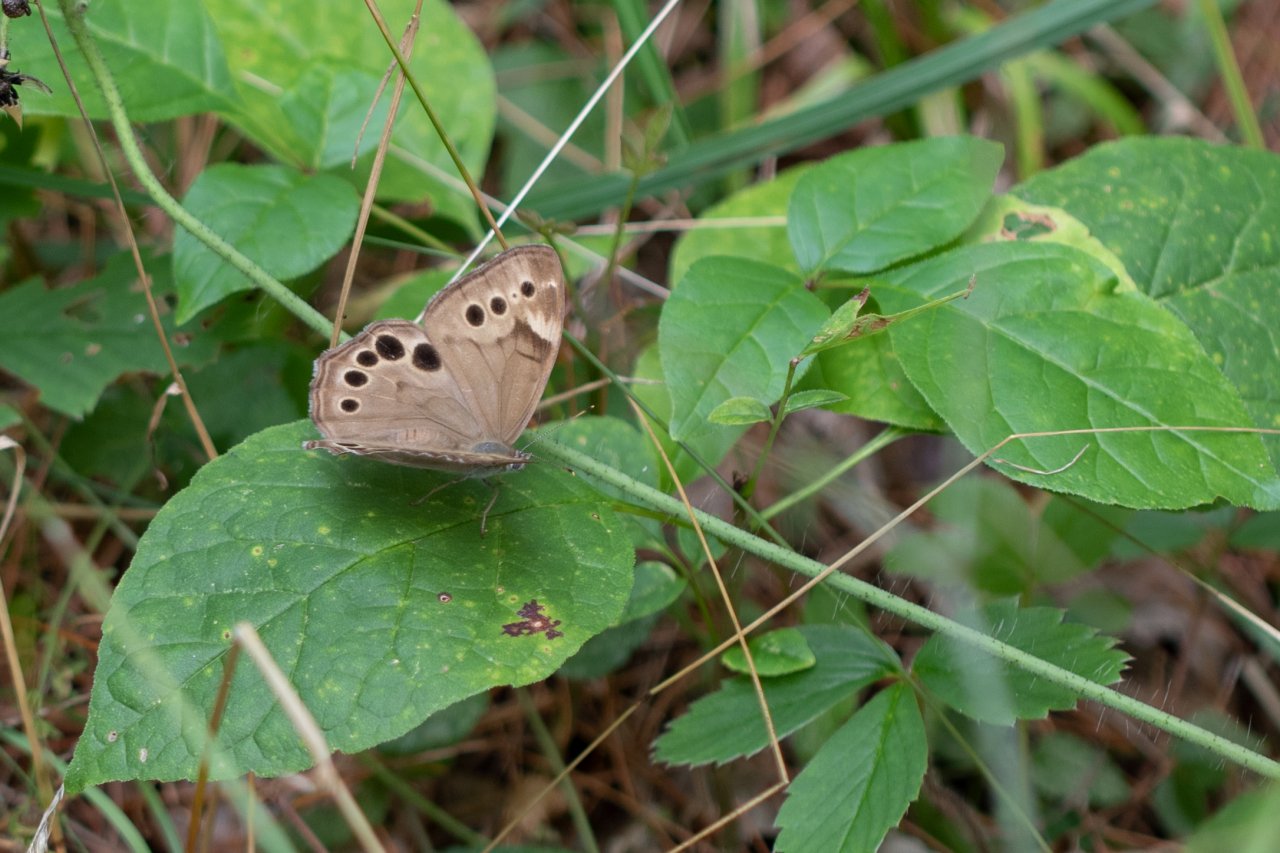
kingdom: Animalia
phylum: Arthropoda
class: Insecta
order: Lepidoptera
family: Nymphalidae
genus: Lethe
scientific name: Lethe anthedon
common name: Northern Pearly-Eye
